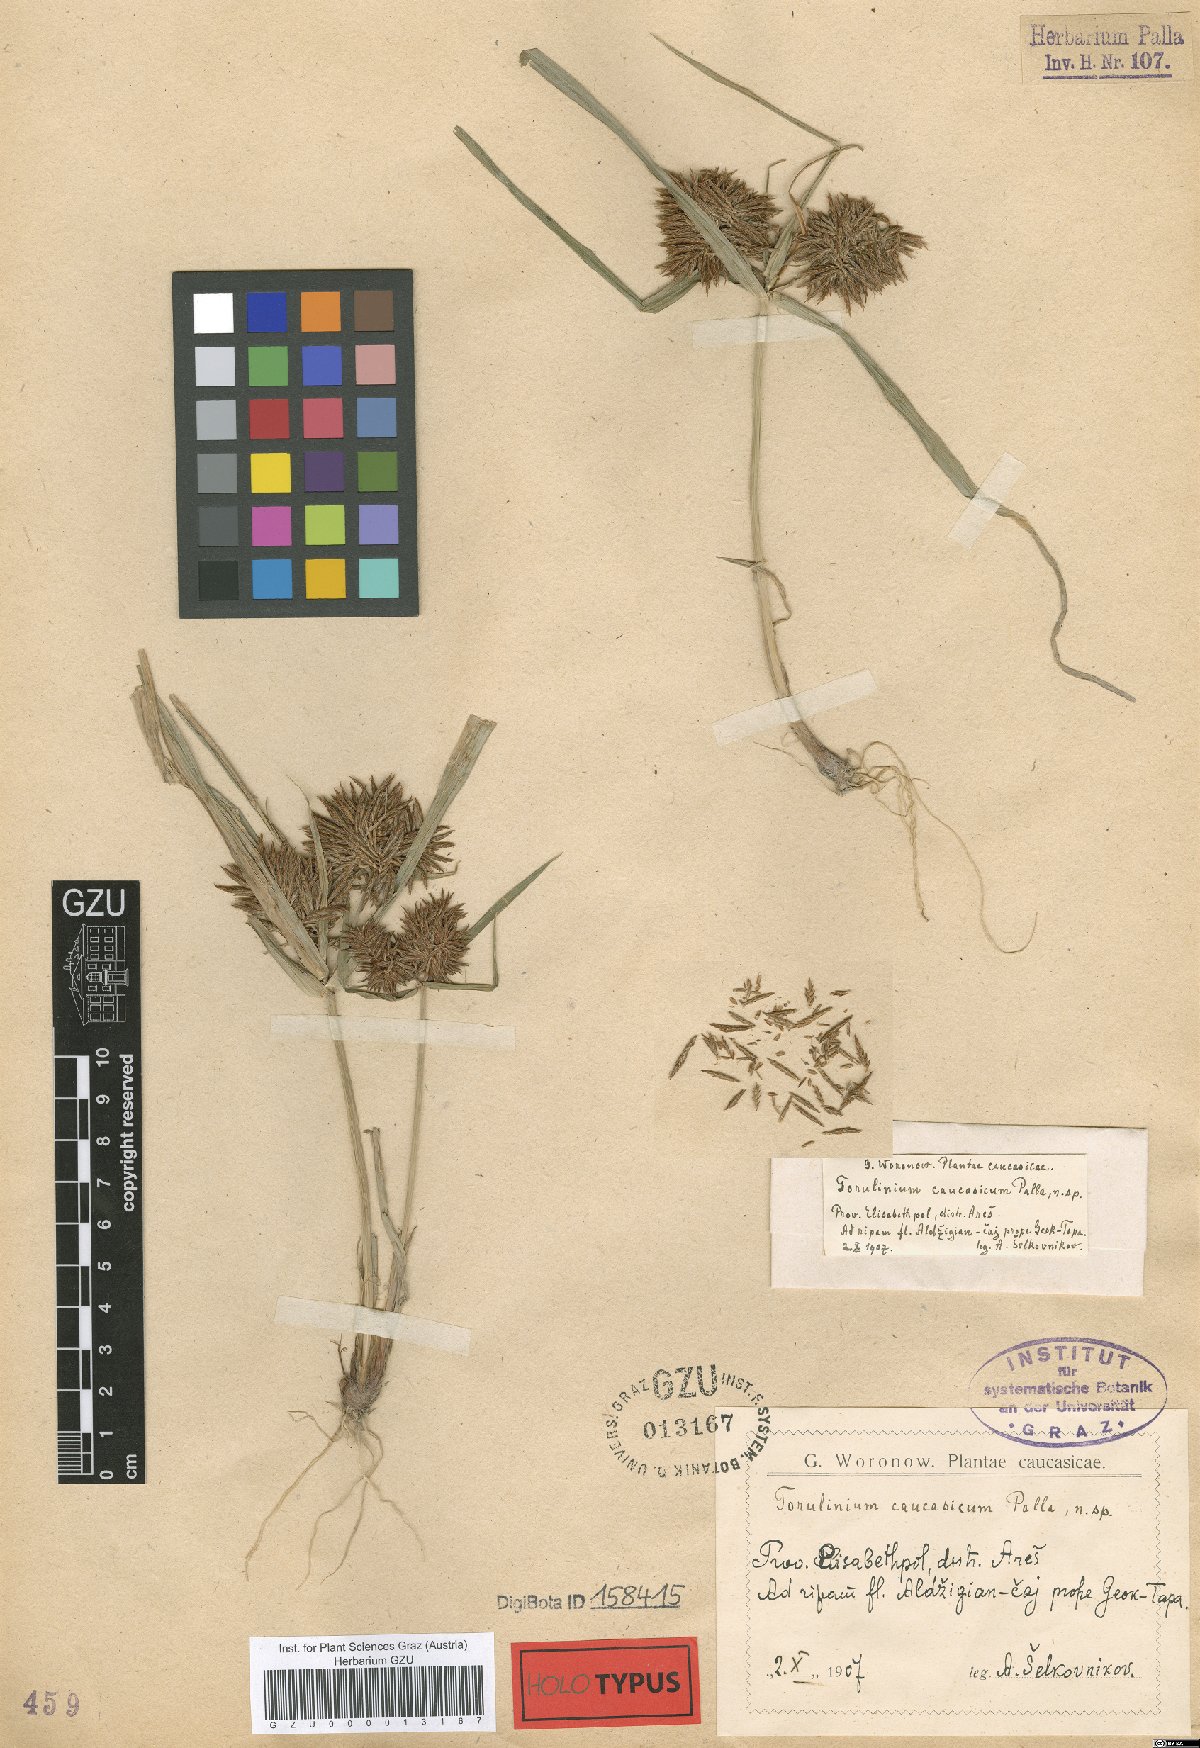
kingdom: Plantae
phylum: Tracheophyta
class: Liliopsida
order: Poales
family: Cyperaceae
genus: Cyperus
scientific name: Cyperus odoratus
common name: Fragrant flatsedge
